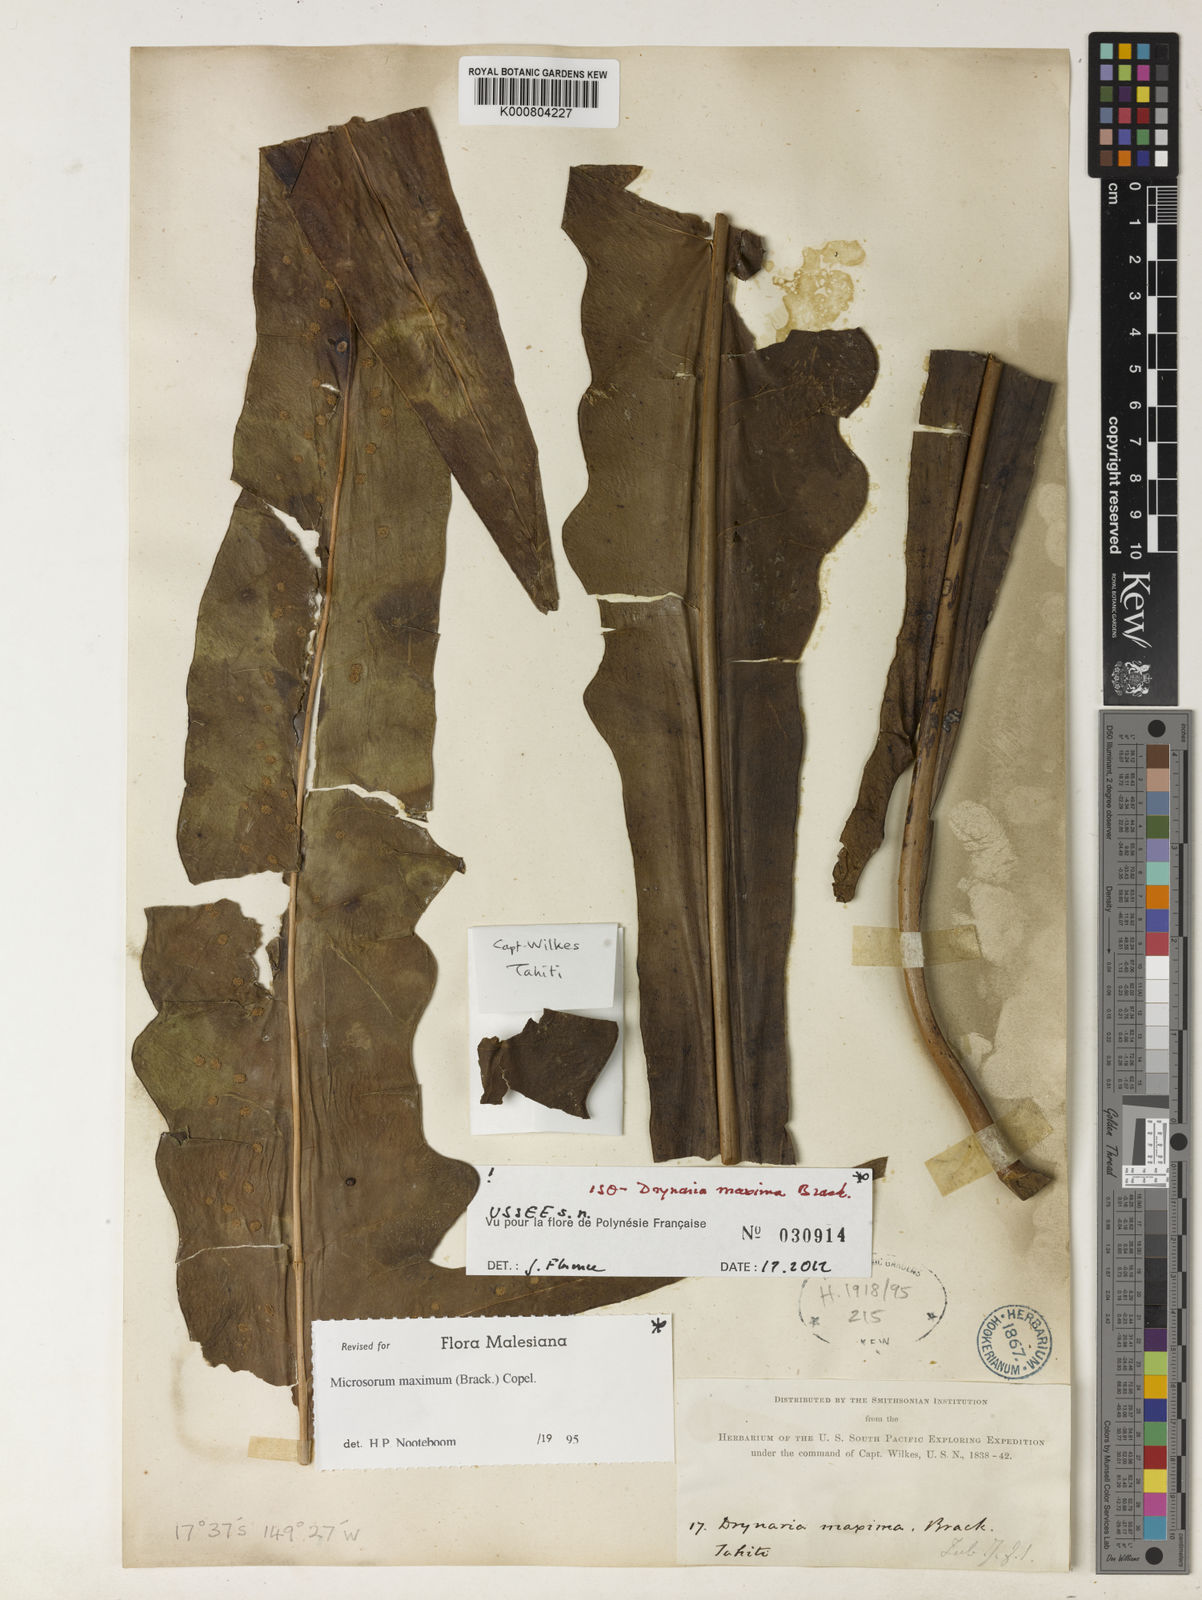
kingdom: Plantae
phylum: Tracheophyta
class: Polypodiopsida
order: Polypodiales
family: Polypodiaceae
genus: Microsorum
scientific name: Microsorum maximum
